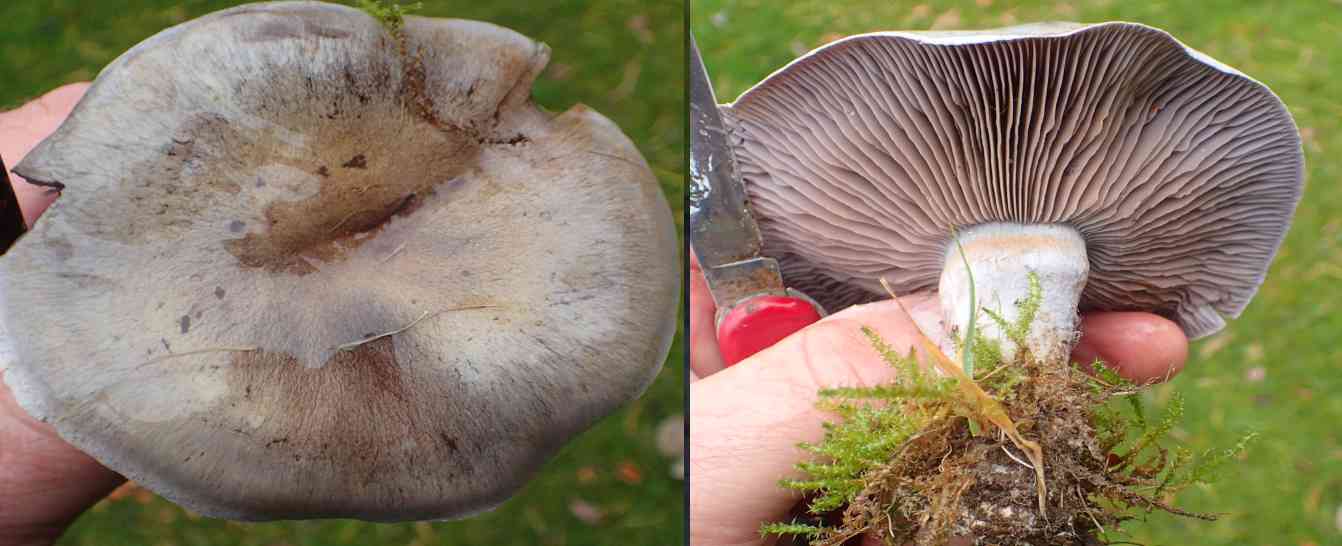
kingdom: Fungi
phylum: Basidiomycota
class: Agaricomycetes
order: Agaricales
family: Cortinariaceae
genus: Thaxterogaster
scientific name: Thaxterogaster subpurpurascens
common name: mørkblånende slørhat
